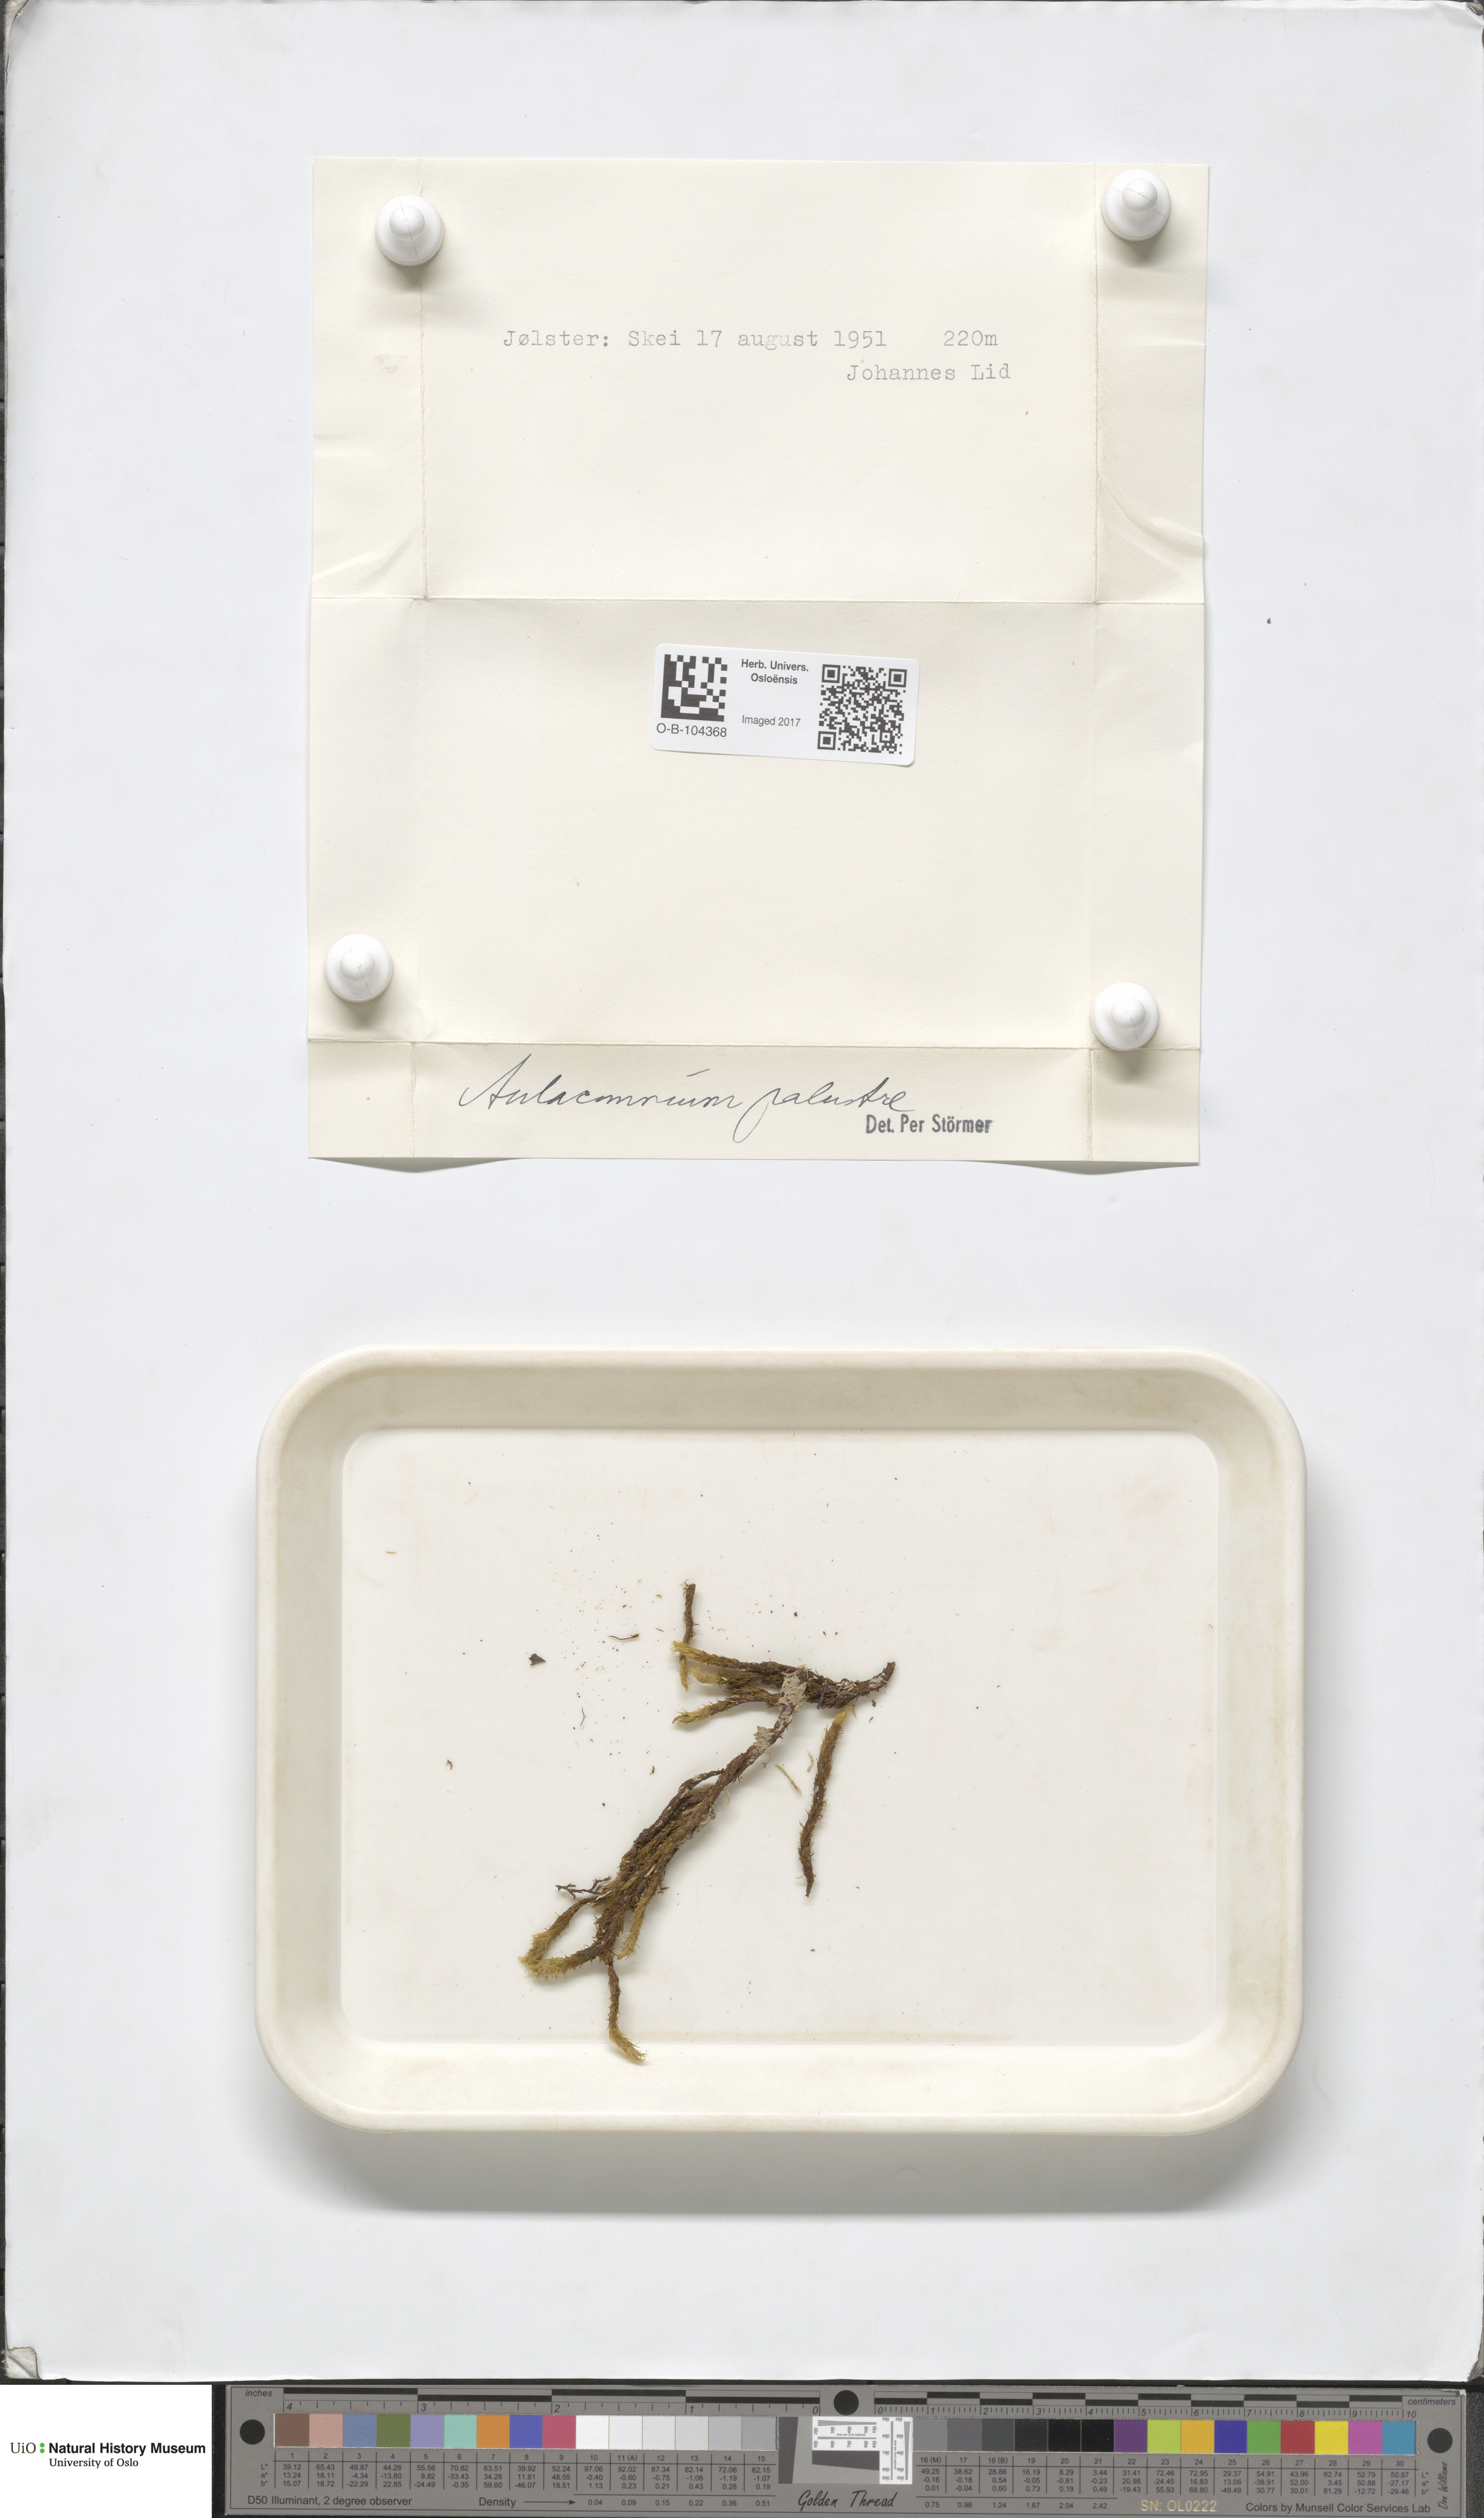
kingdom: Plantae
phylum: Bryophyta
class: Bryopsida
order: Aulacomniales
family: Aulacomniaceae
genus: Aulacomnium
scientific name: Aulacomnium palustre
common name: Bog groove-moss
